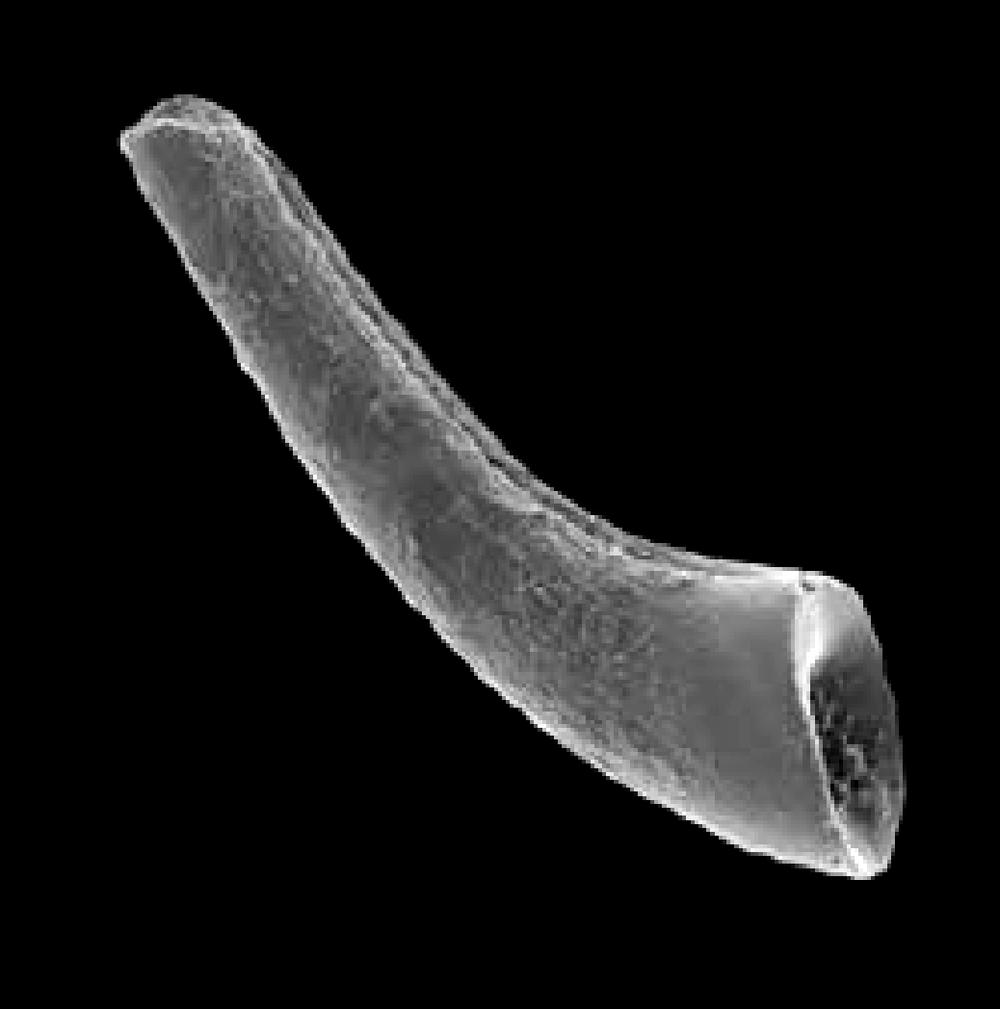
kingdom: Animalia
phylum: Chordata
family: Panderodontidae
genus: Parapanderodus
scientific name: Parapanderodus
